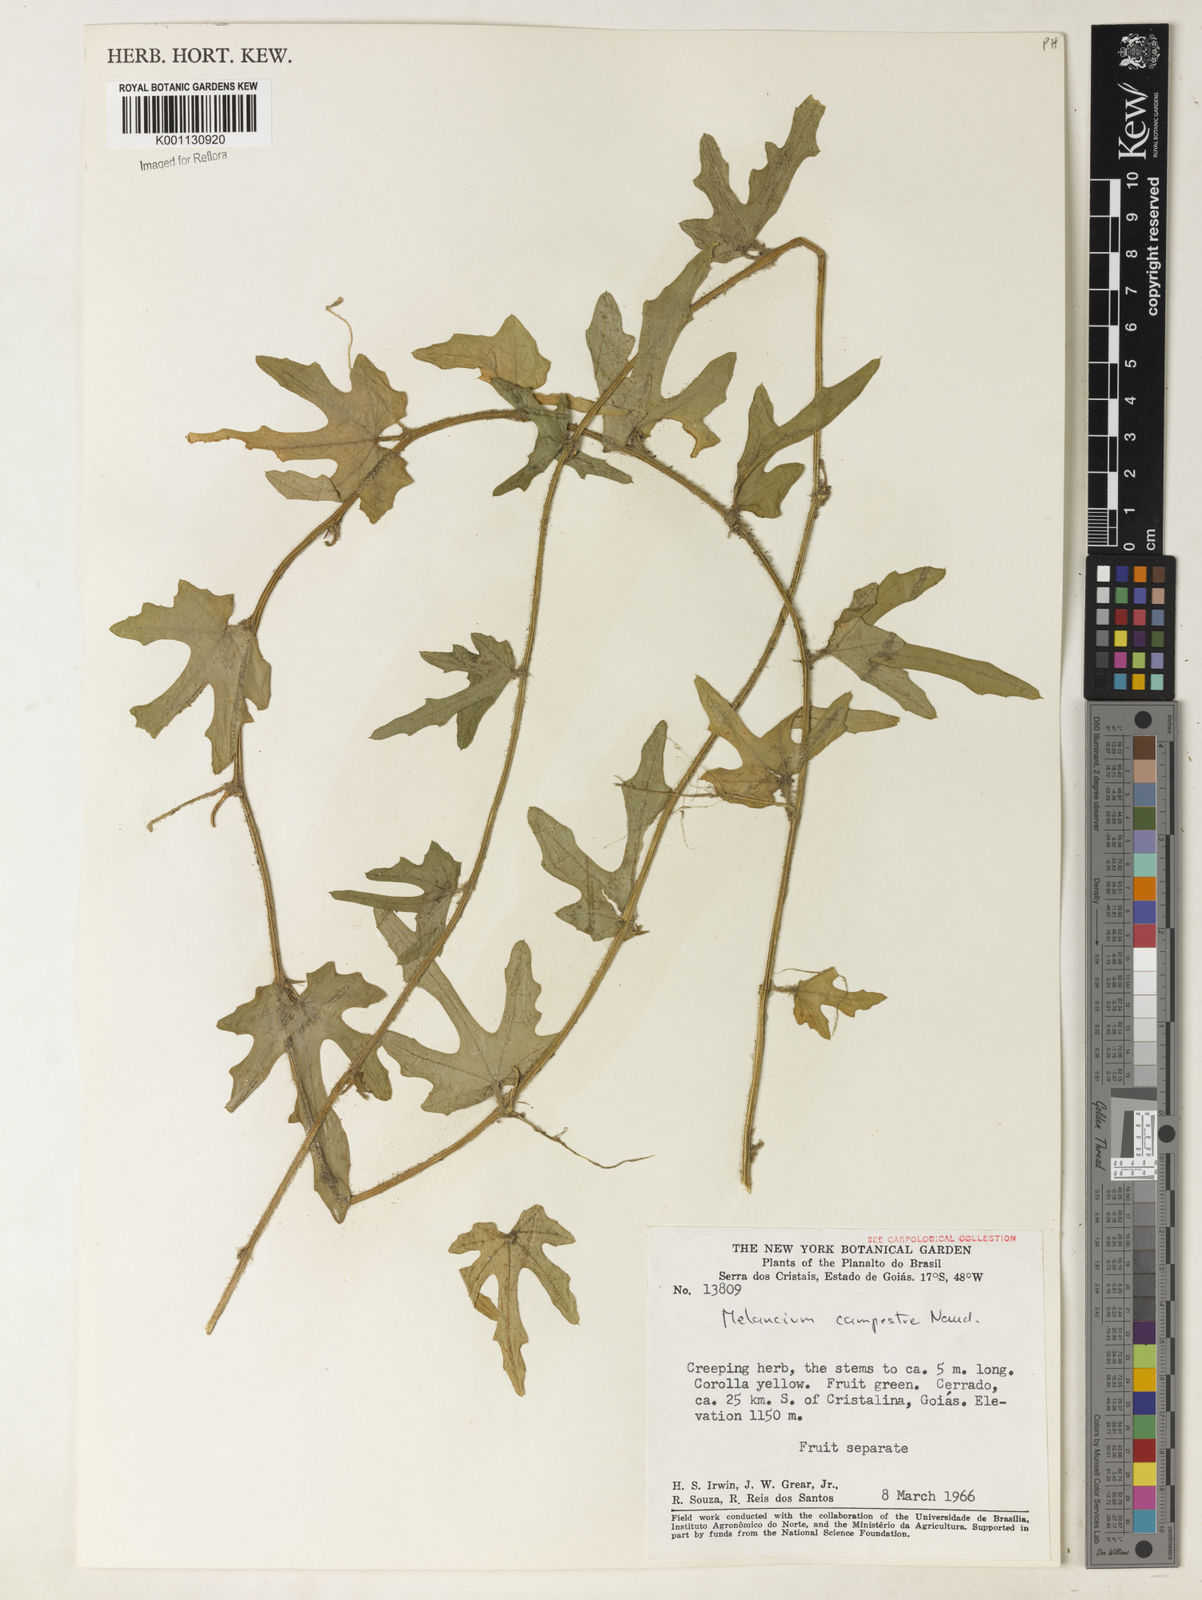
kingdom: Plantae
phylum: Tracheophyta
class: Magnoliopsida
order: Cucurbitales
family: Cucurbitaceae
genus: Melothria
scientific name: Melothria campestris
